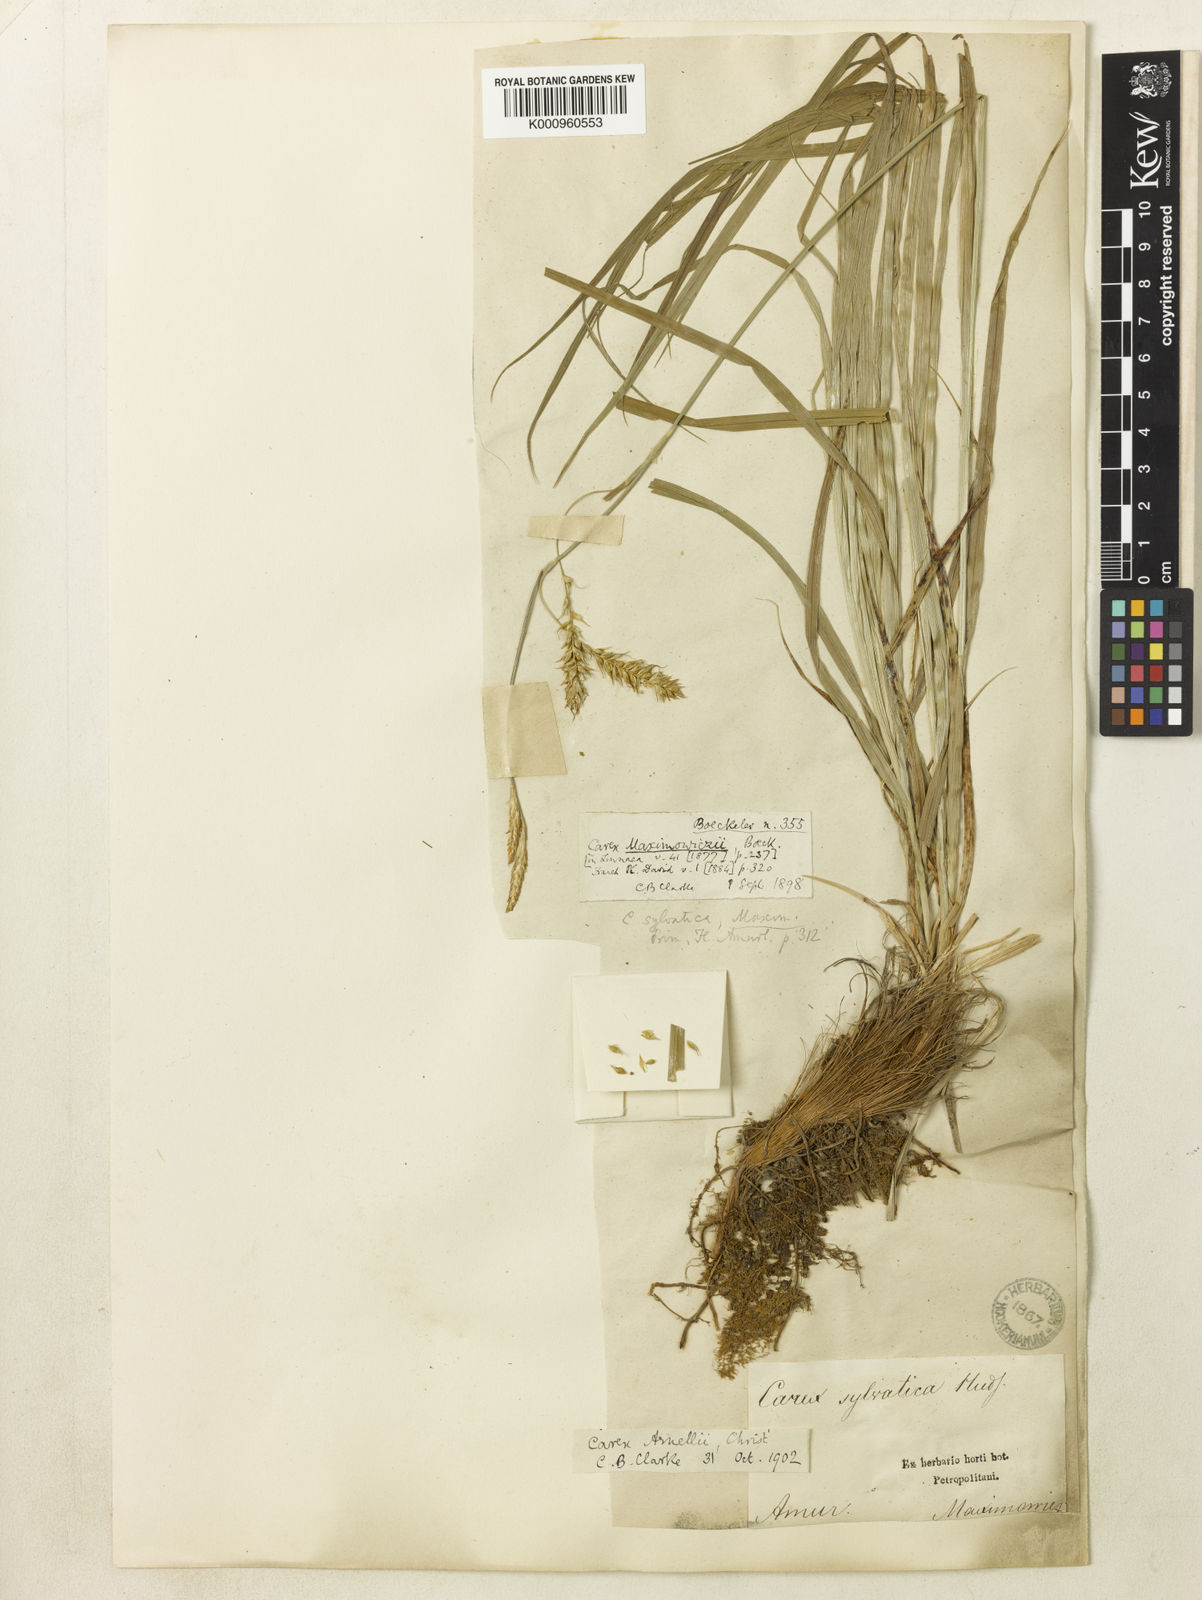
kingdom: Plantae
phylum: Tracheophyta
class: Liliopsida
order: Poales
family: Cyperaceae
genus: Carex
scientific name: Carex arnellii
